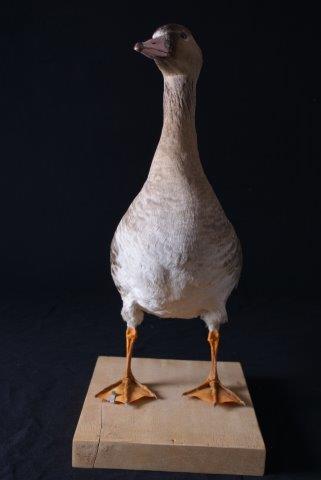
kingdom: Animalia
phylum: Chordata
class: Aves
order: Anseriformes
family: Anatidae
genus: Anser
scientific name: Anser fabalis
